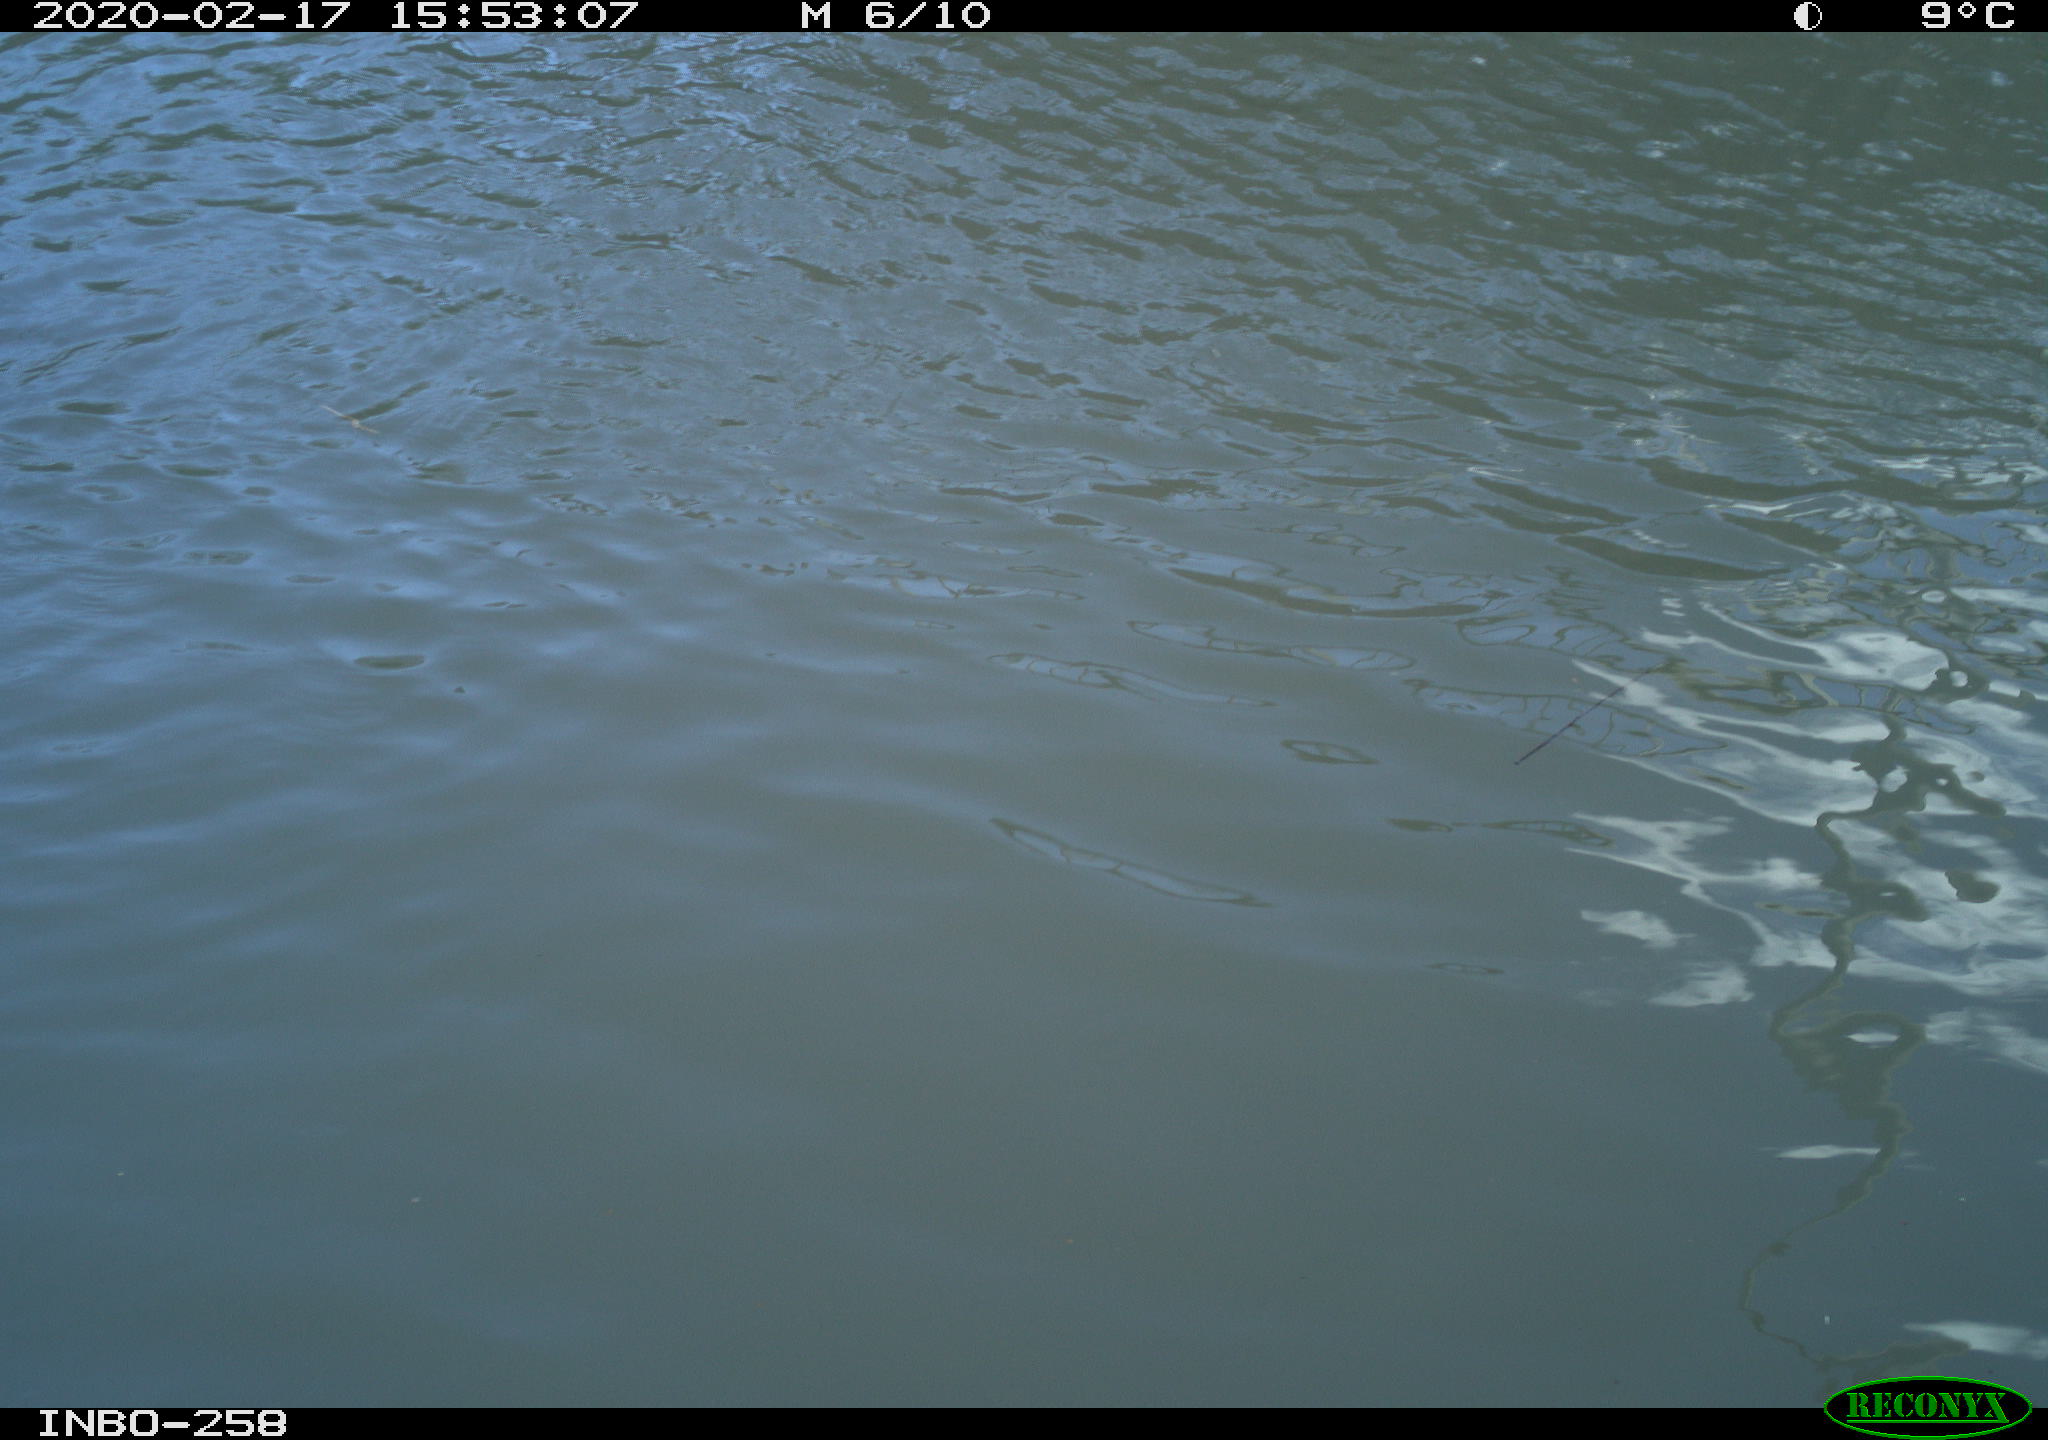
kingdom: Animalia
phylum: Chordata
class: Aves
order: Anseriformes
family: Anatidae
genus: Anas
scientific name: Anas platyrhynchos
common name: Mallard
